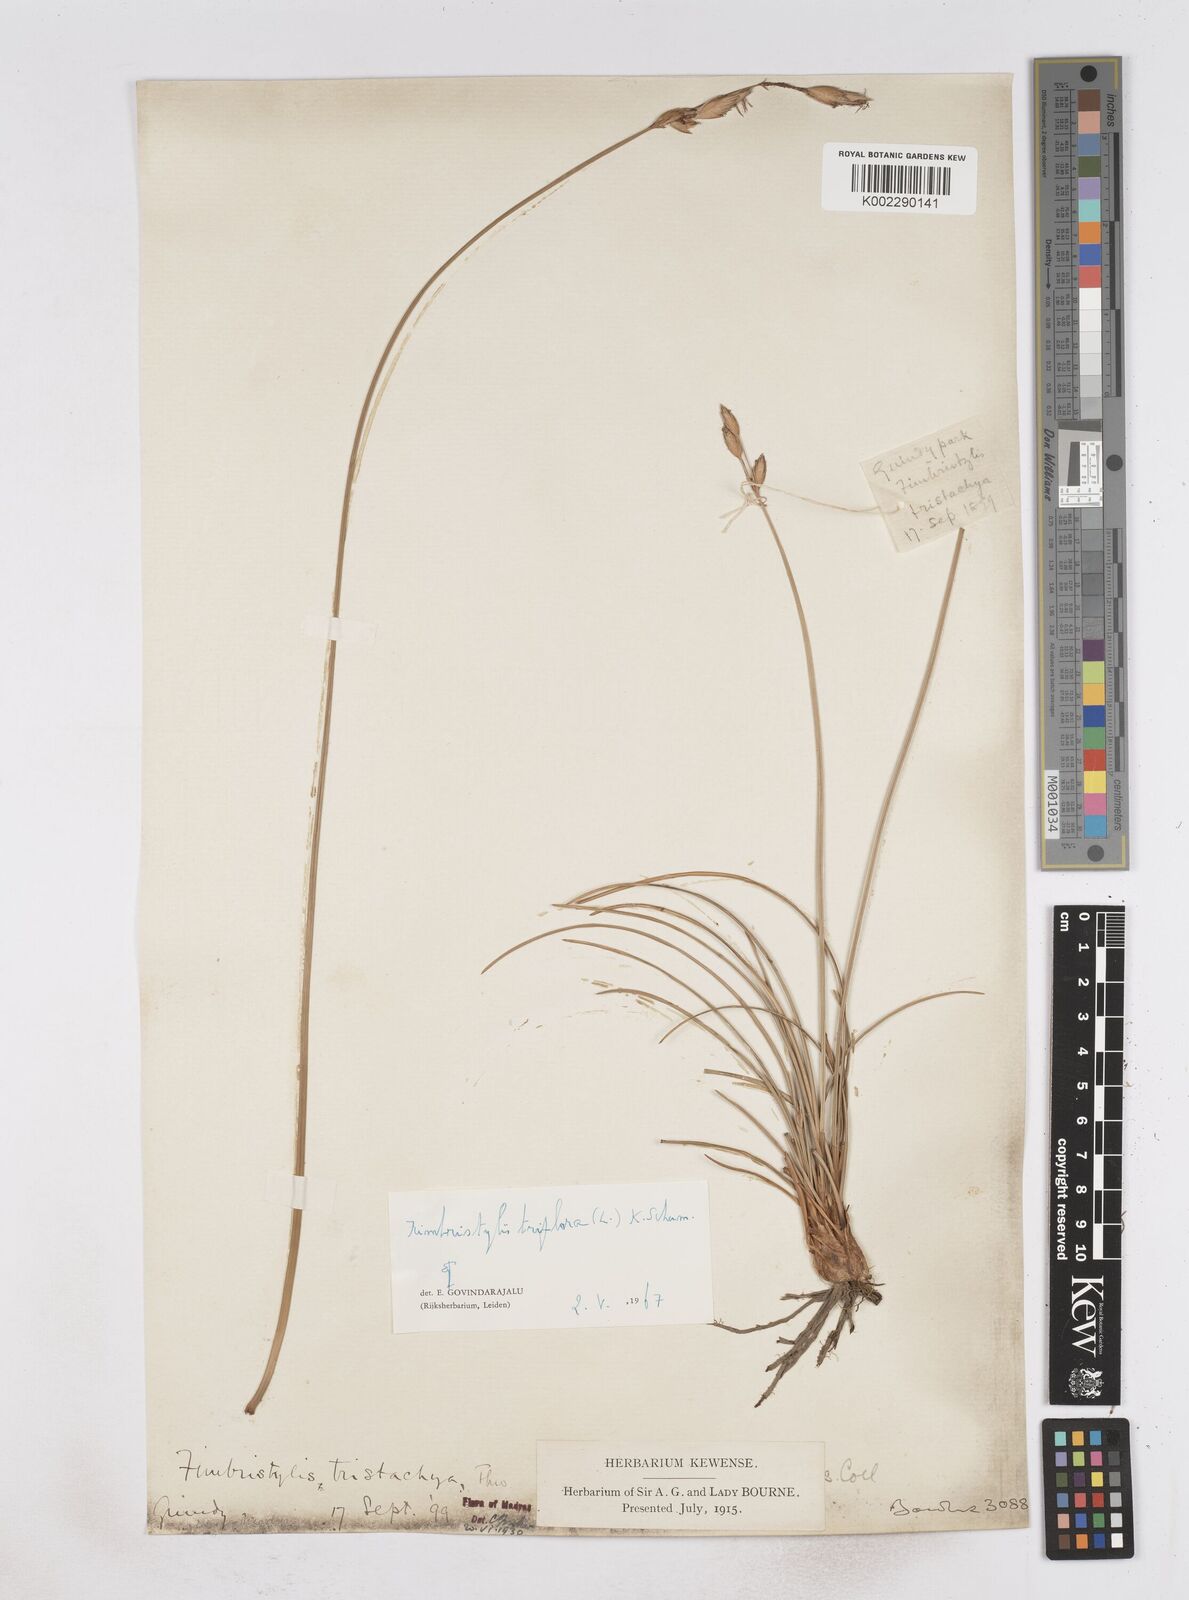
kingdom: Plantae
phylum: Tracheophyta
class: Liliopsida
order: Poales
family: Cyperaceae
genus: Abildgaardia
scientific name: Abildgaardia triflora
